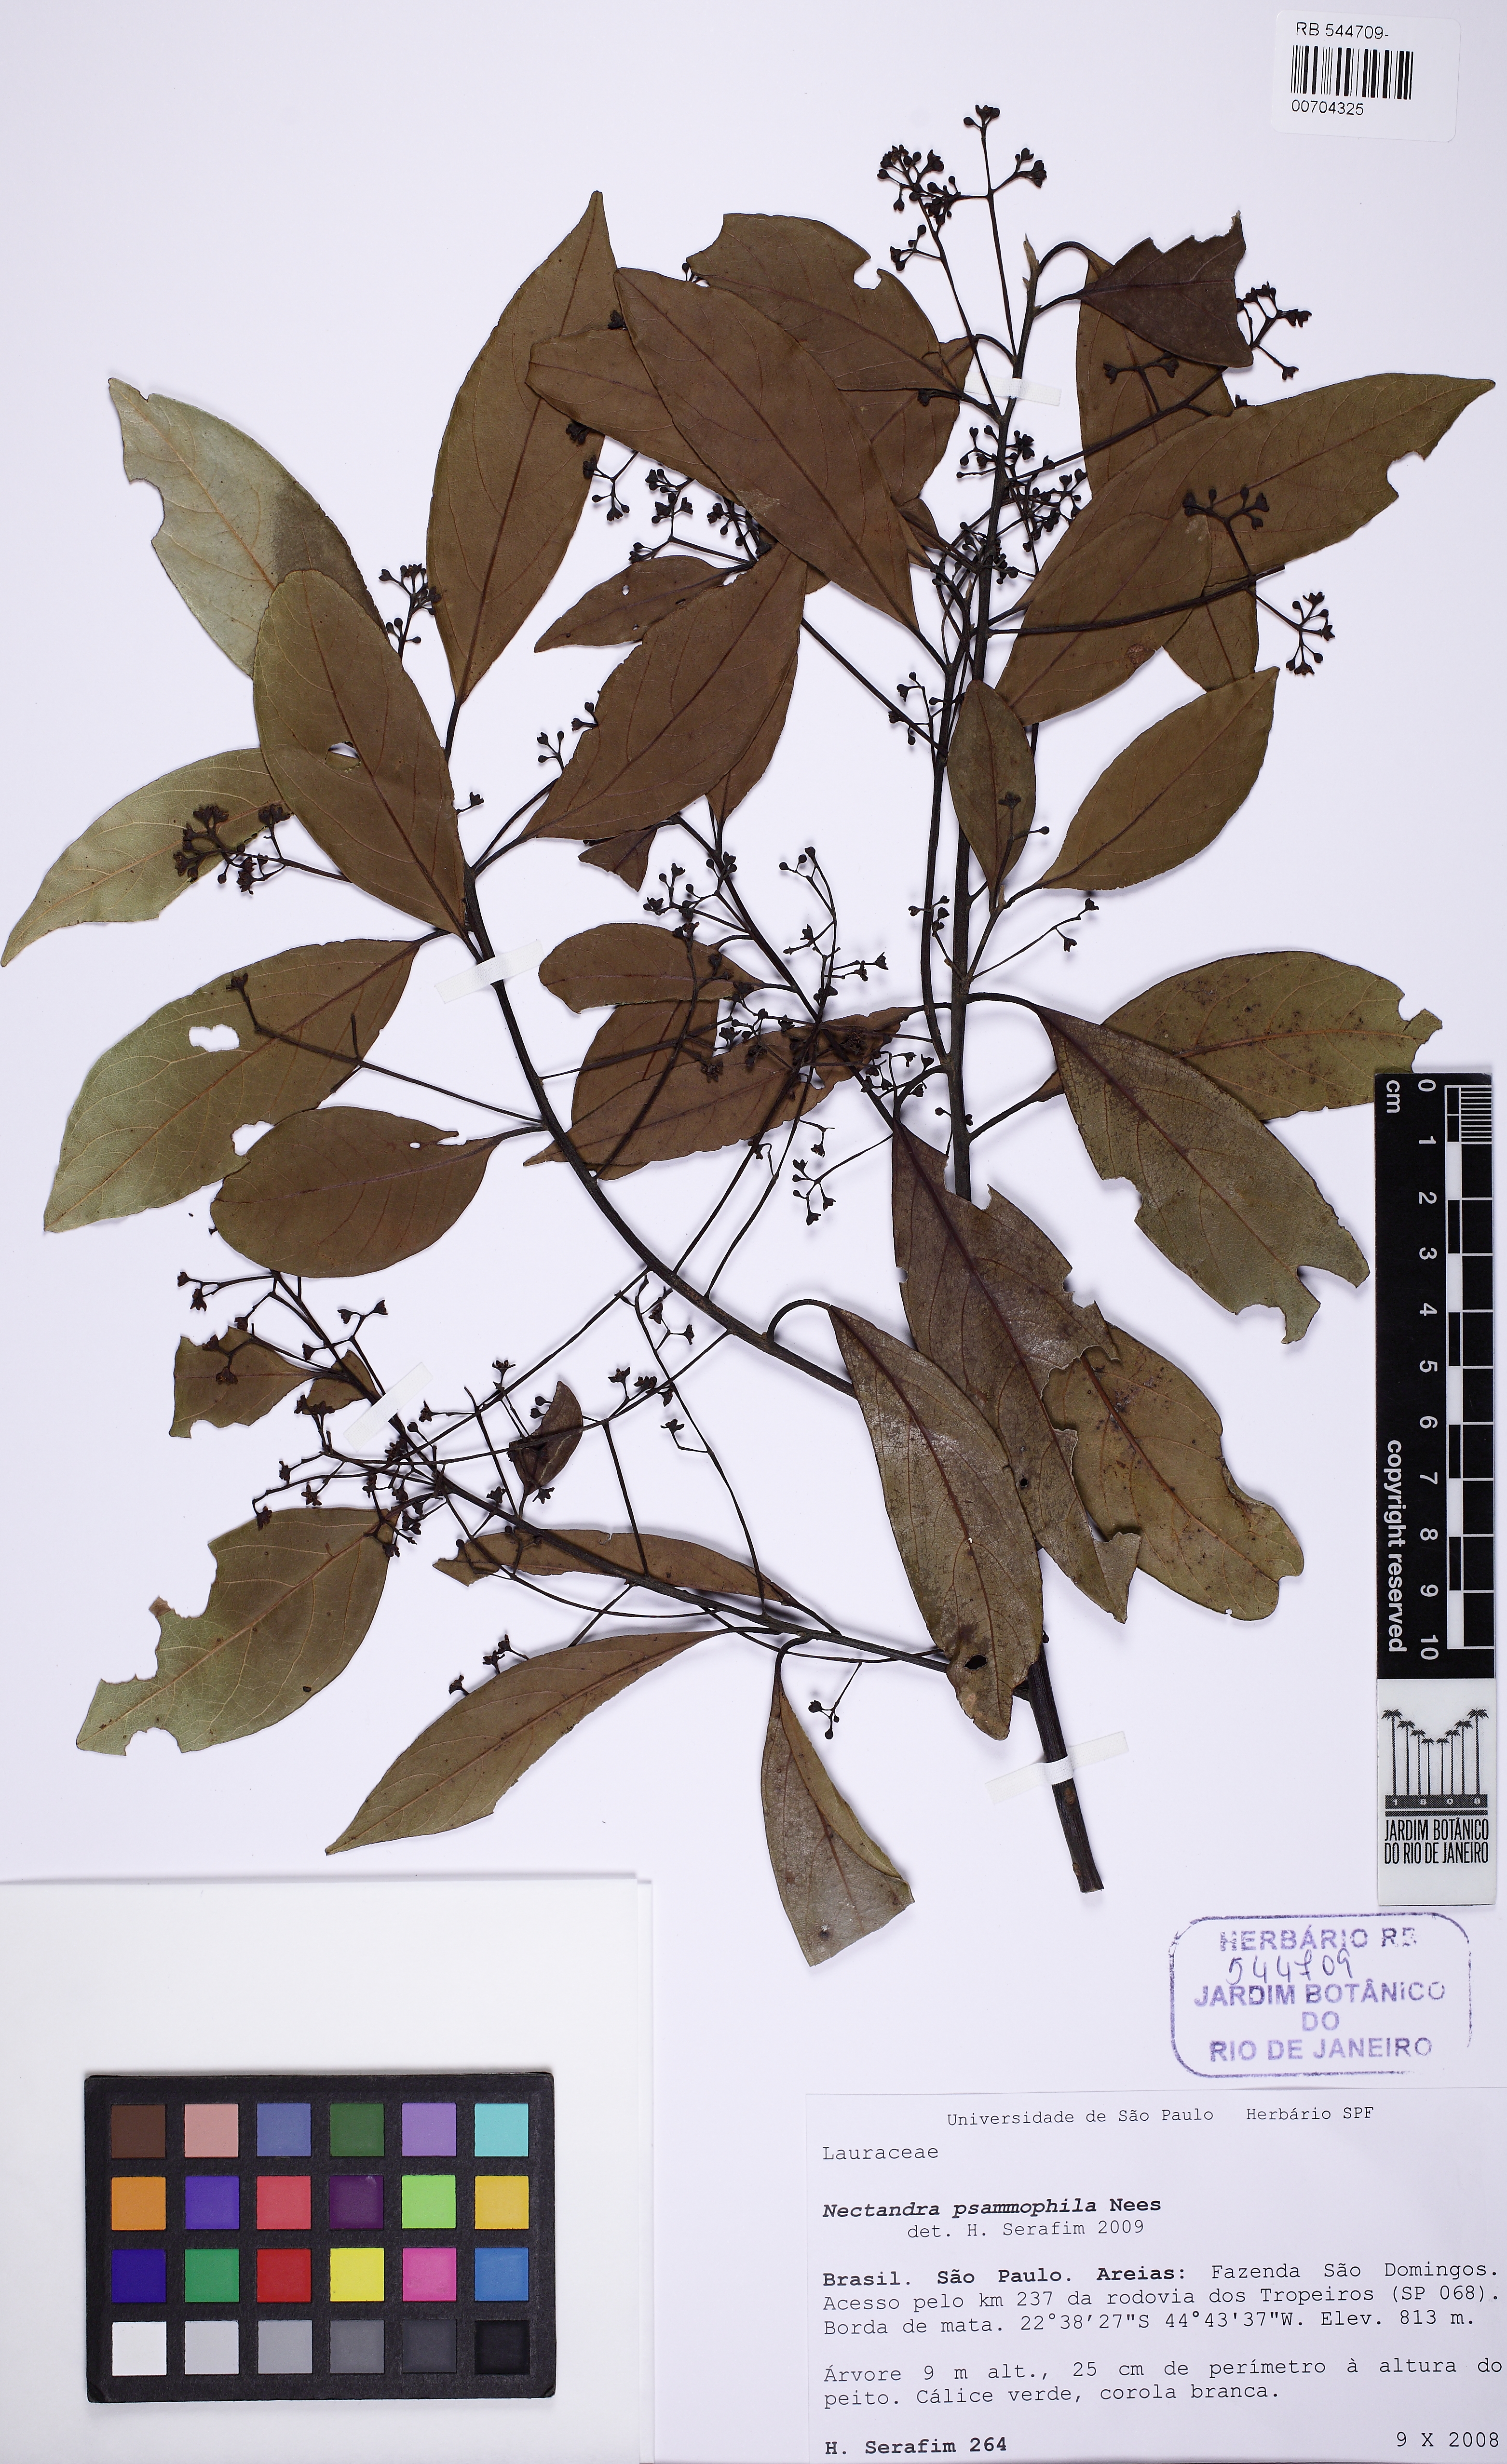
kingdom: Plantae
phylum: Tracheophyta
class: Magnoliopsida
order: Laurales
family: Lauraceae
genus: Nectandra
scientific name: Nectandra psammophila
